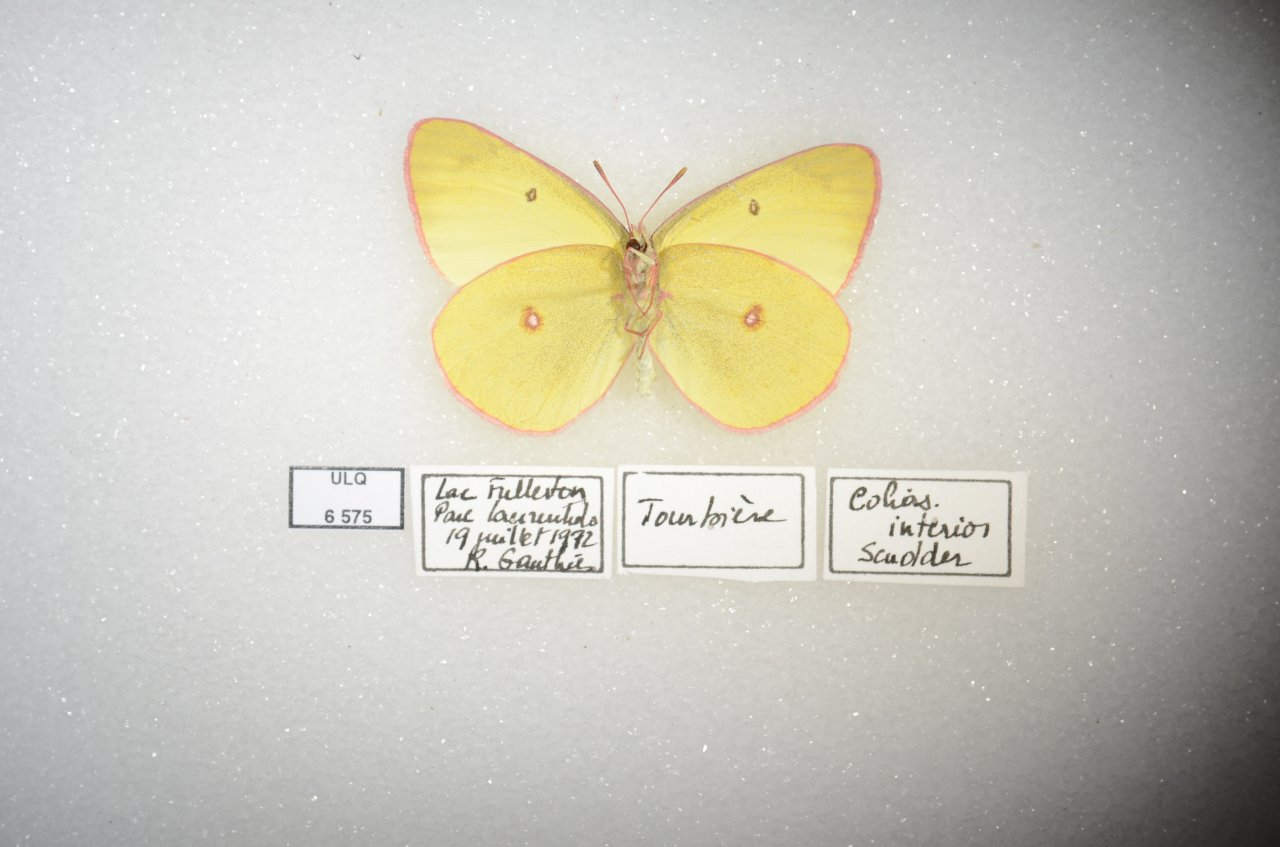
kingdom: Animalia
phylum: Arthropoda
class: Insecta
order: Lepidoptera
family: Pieridae
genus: Colias
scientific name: Colias interior
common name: Pink-edged Sulphur
